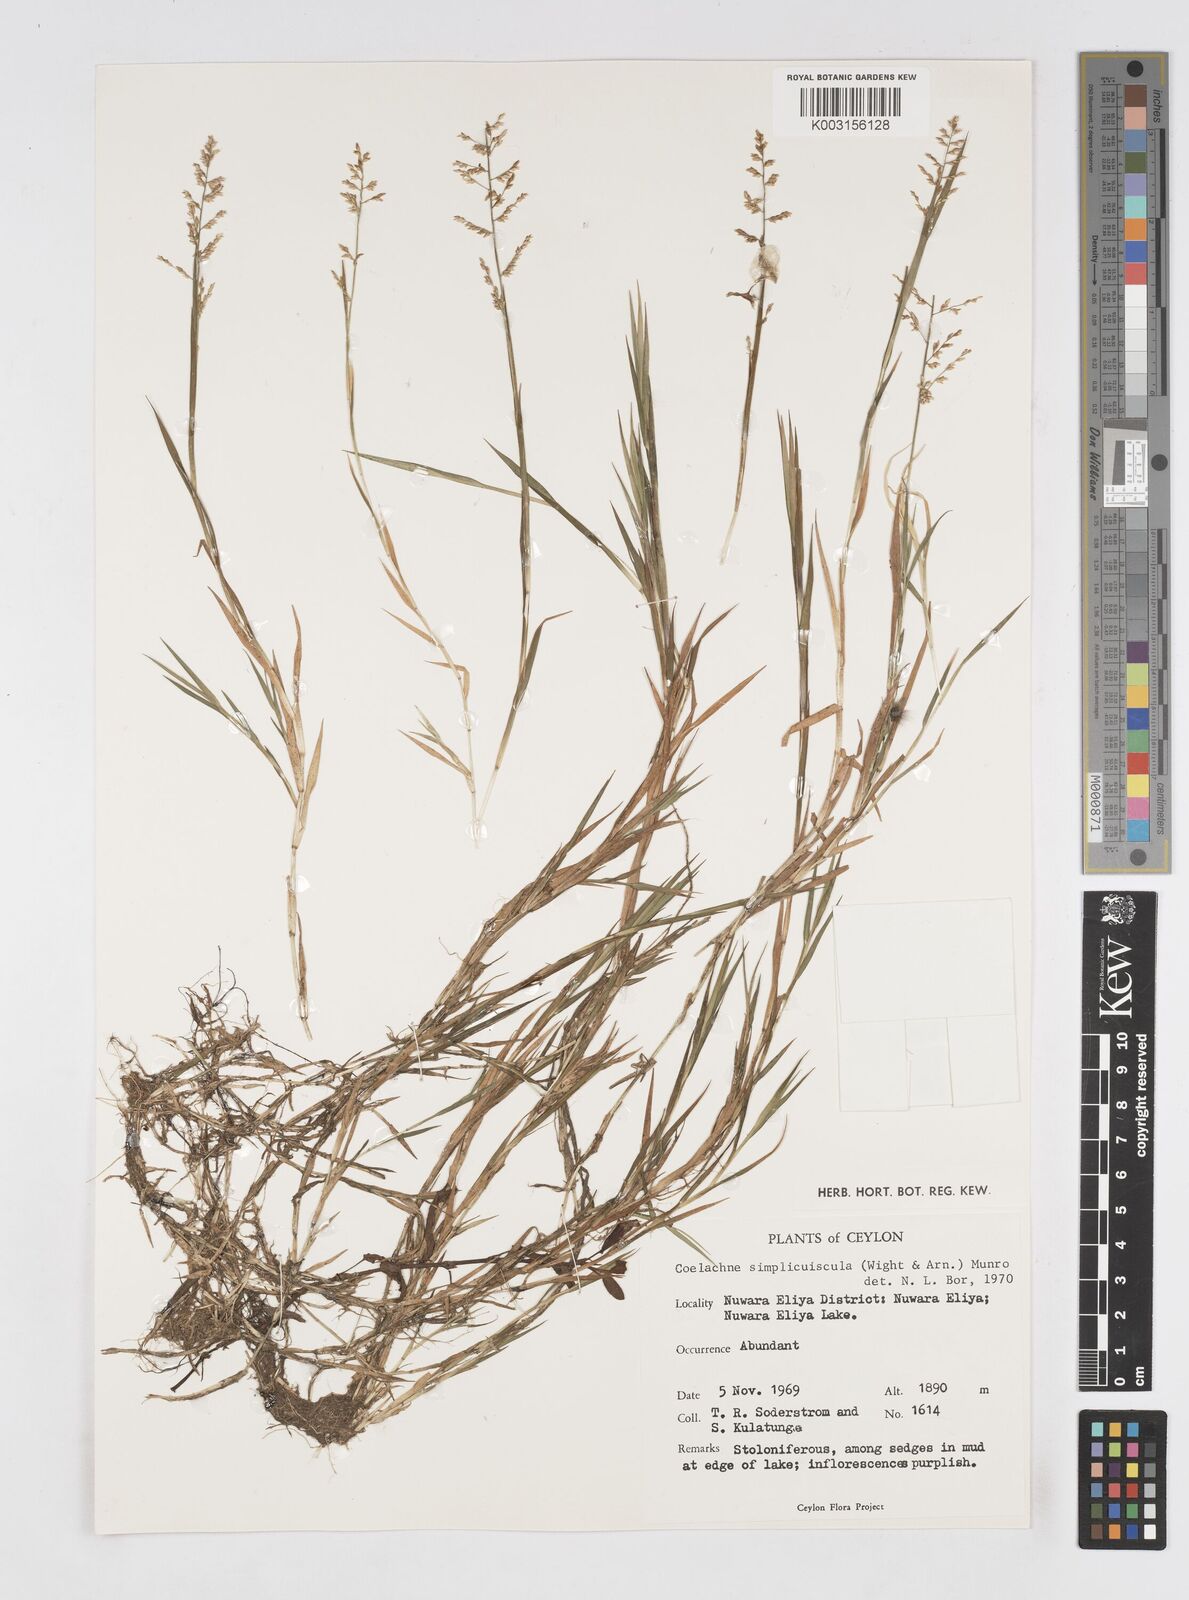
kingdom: Plantae
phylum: Tracheophyta
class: Liliopsida
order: Poales
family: Poaceae
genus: Coelachne
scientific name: Coelachne simpliciuscula
